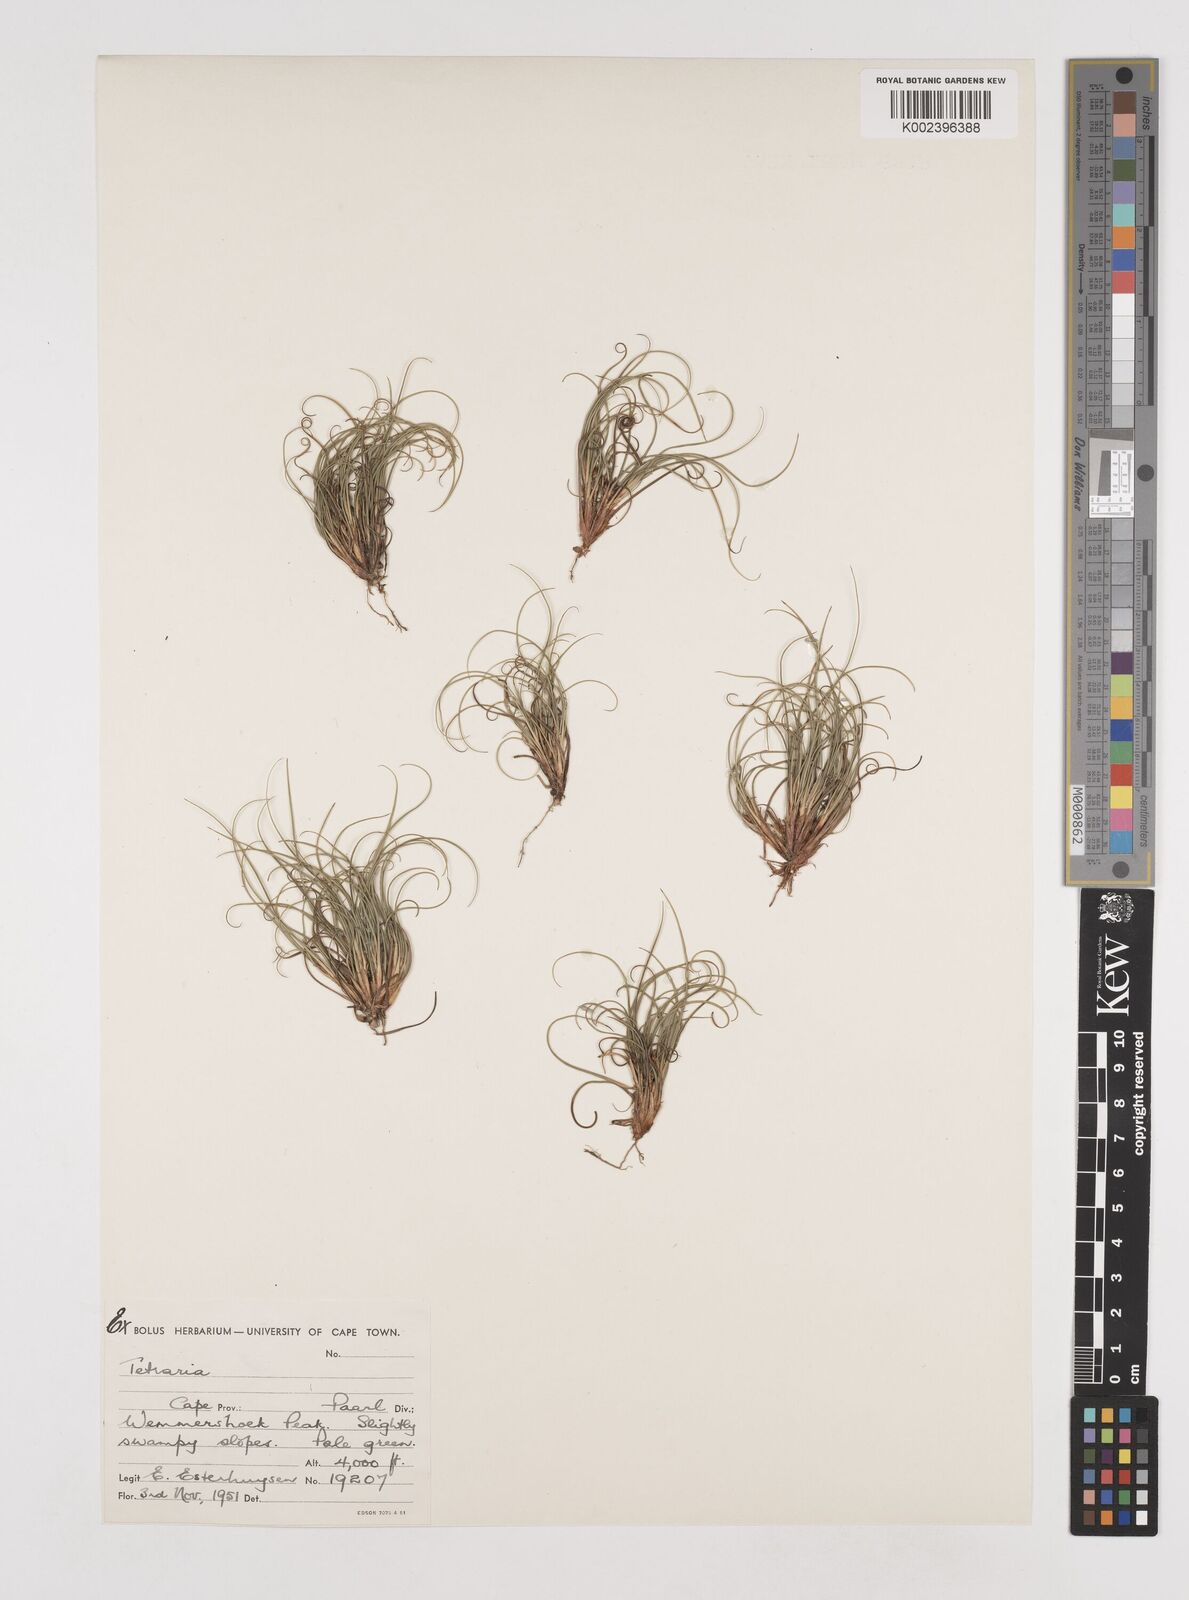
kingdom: Plantae
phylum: Tracheophyta
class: Liliopsida
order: Poales
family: Cyperaceae
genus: Tetraria
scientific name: Tetraria
